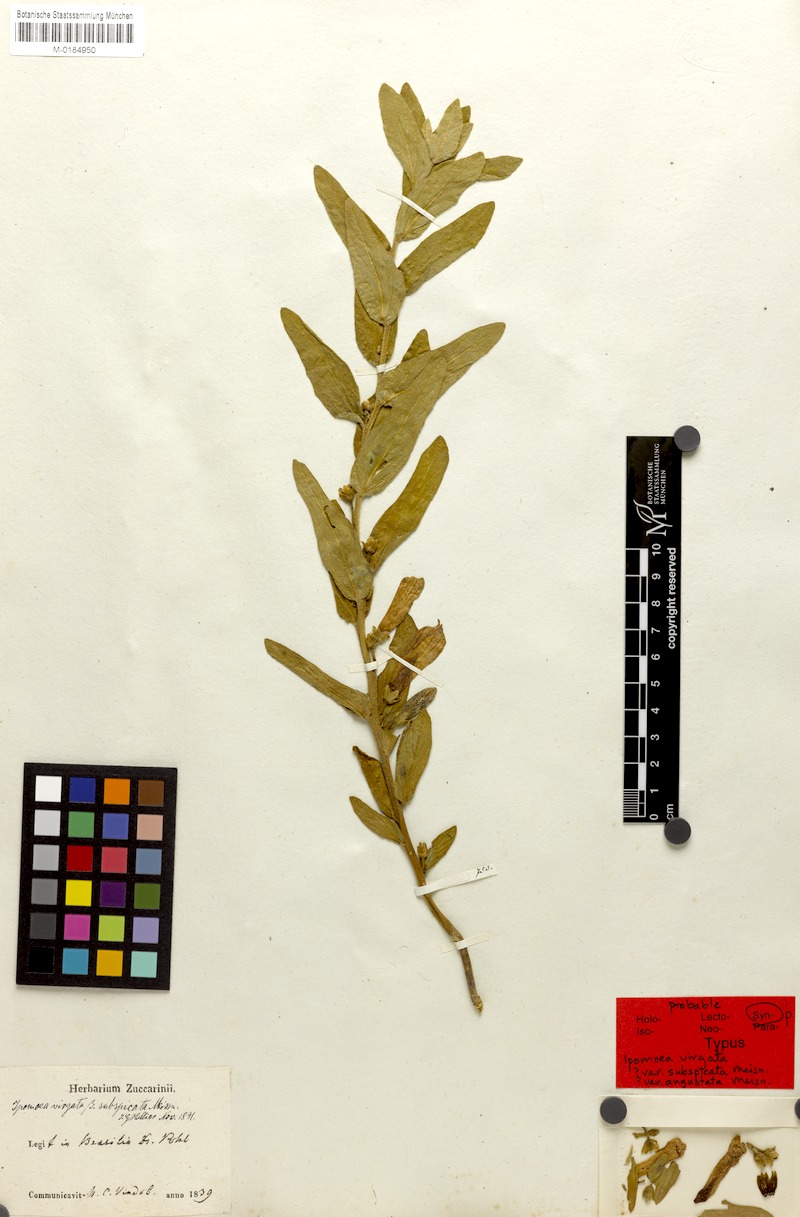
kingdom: Plantae
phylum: Tracheophyta
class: Magnoliopsida
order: Solanales
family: Convolvulaceae
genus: Ipomoea
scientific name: Ipomoea virgata
